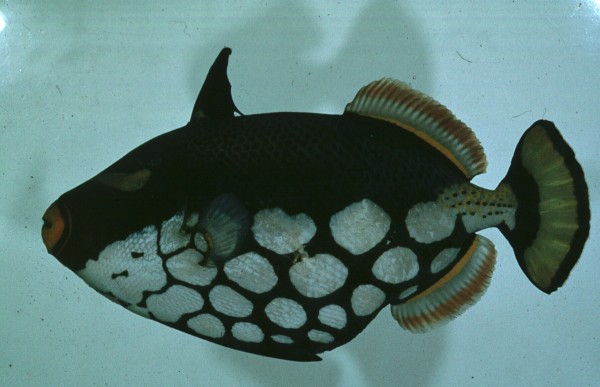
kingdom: Animalia
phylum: Chordata
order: Tetraodontiformes
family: Balistidae
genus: Balistoides
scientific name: Balistoides conspicillum
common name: Clown triggerfish
